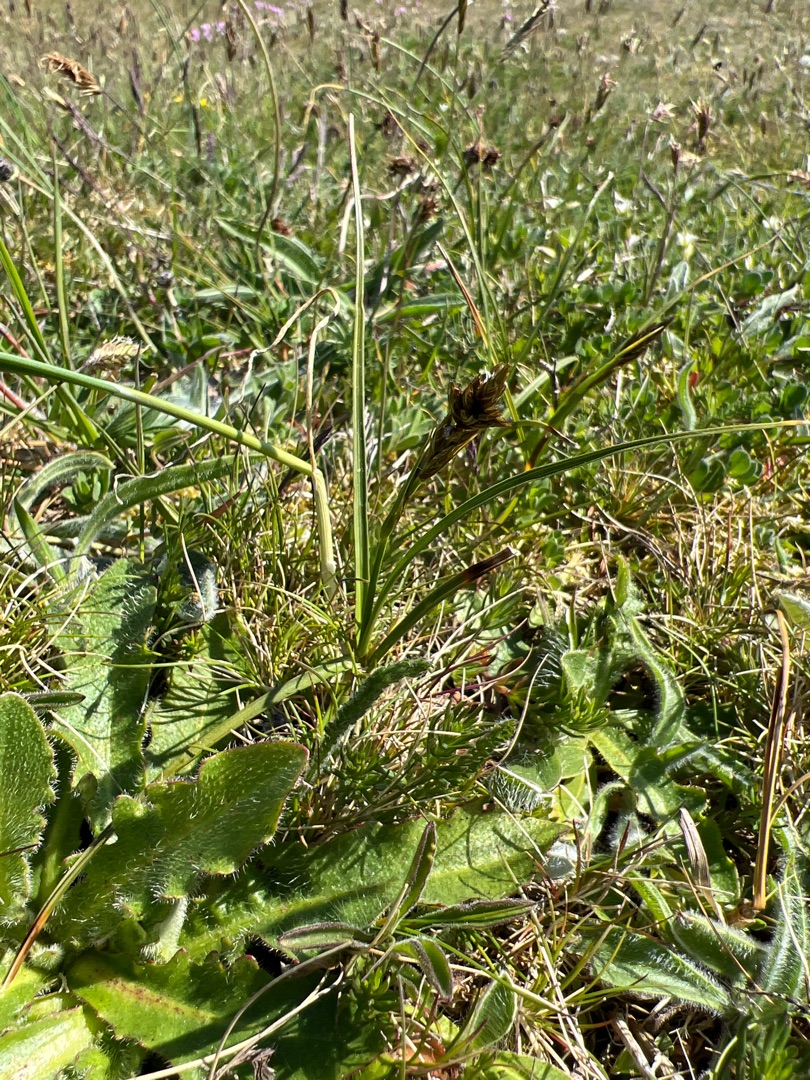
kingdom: Plantae
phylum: Tracheophyta
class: Liliopsida
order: Poales
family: Cyperaceae
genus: Carex
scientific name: Carex arenaria
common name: Sand-star
